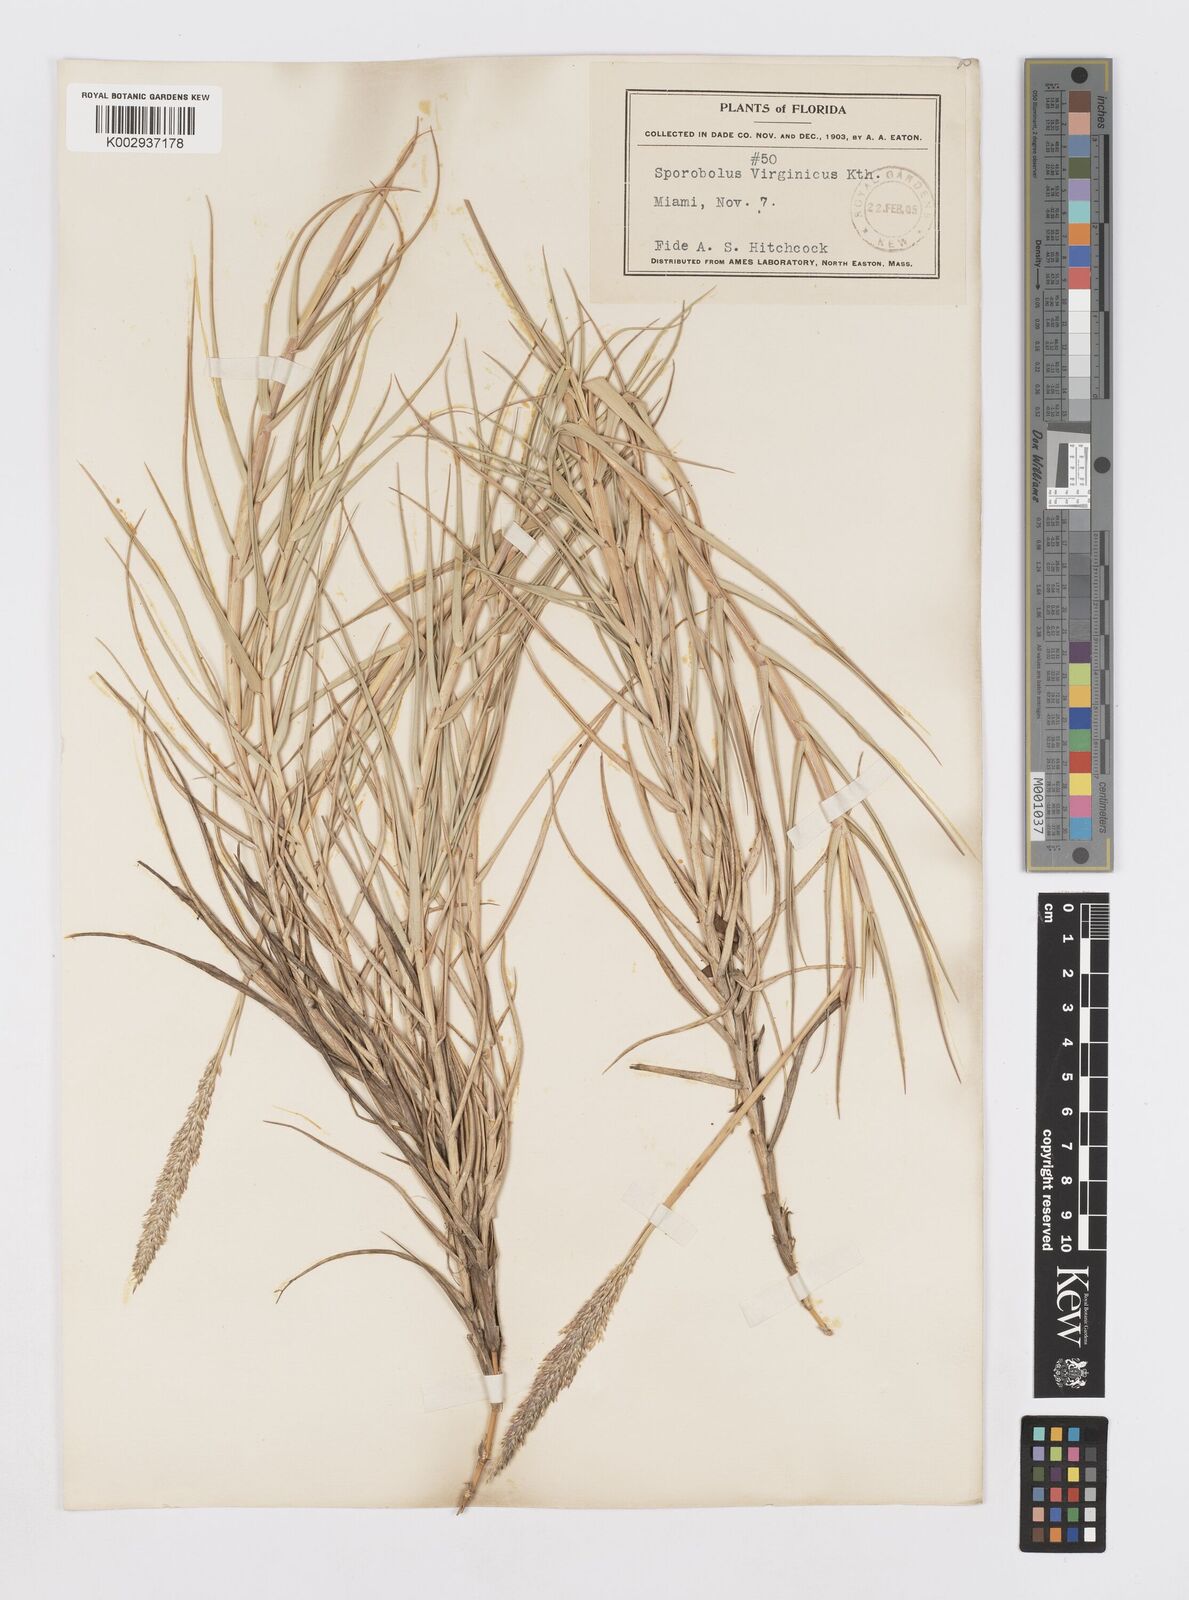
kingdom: Plantae
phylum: Tracheophyta
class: Liliopsida
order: Poales
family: Poaceae
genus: Sporobolus
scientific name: Sporobolus virginicus
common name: Beach dropseed
